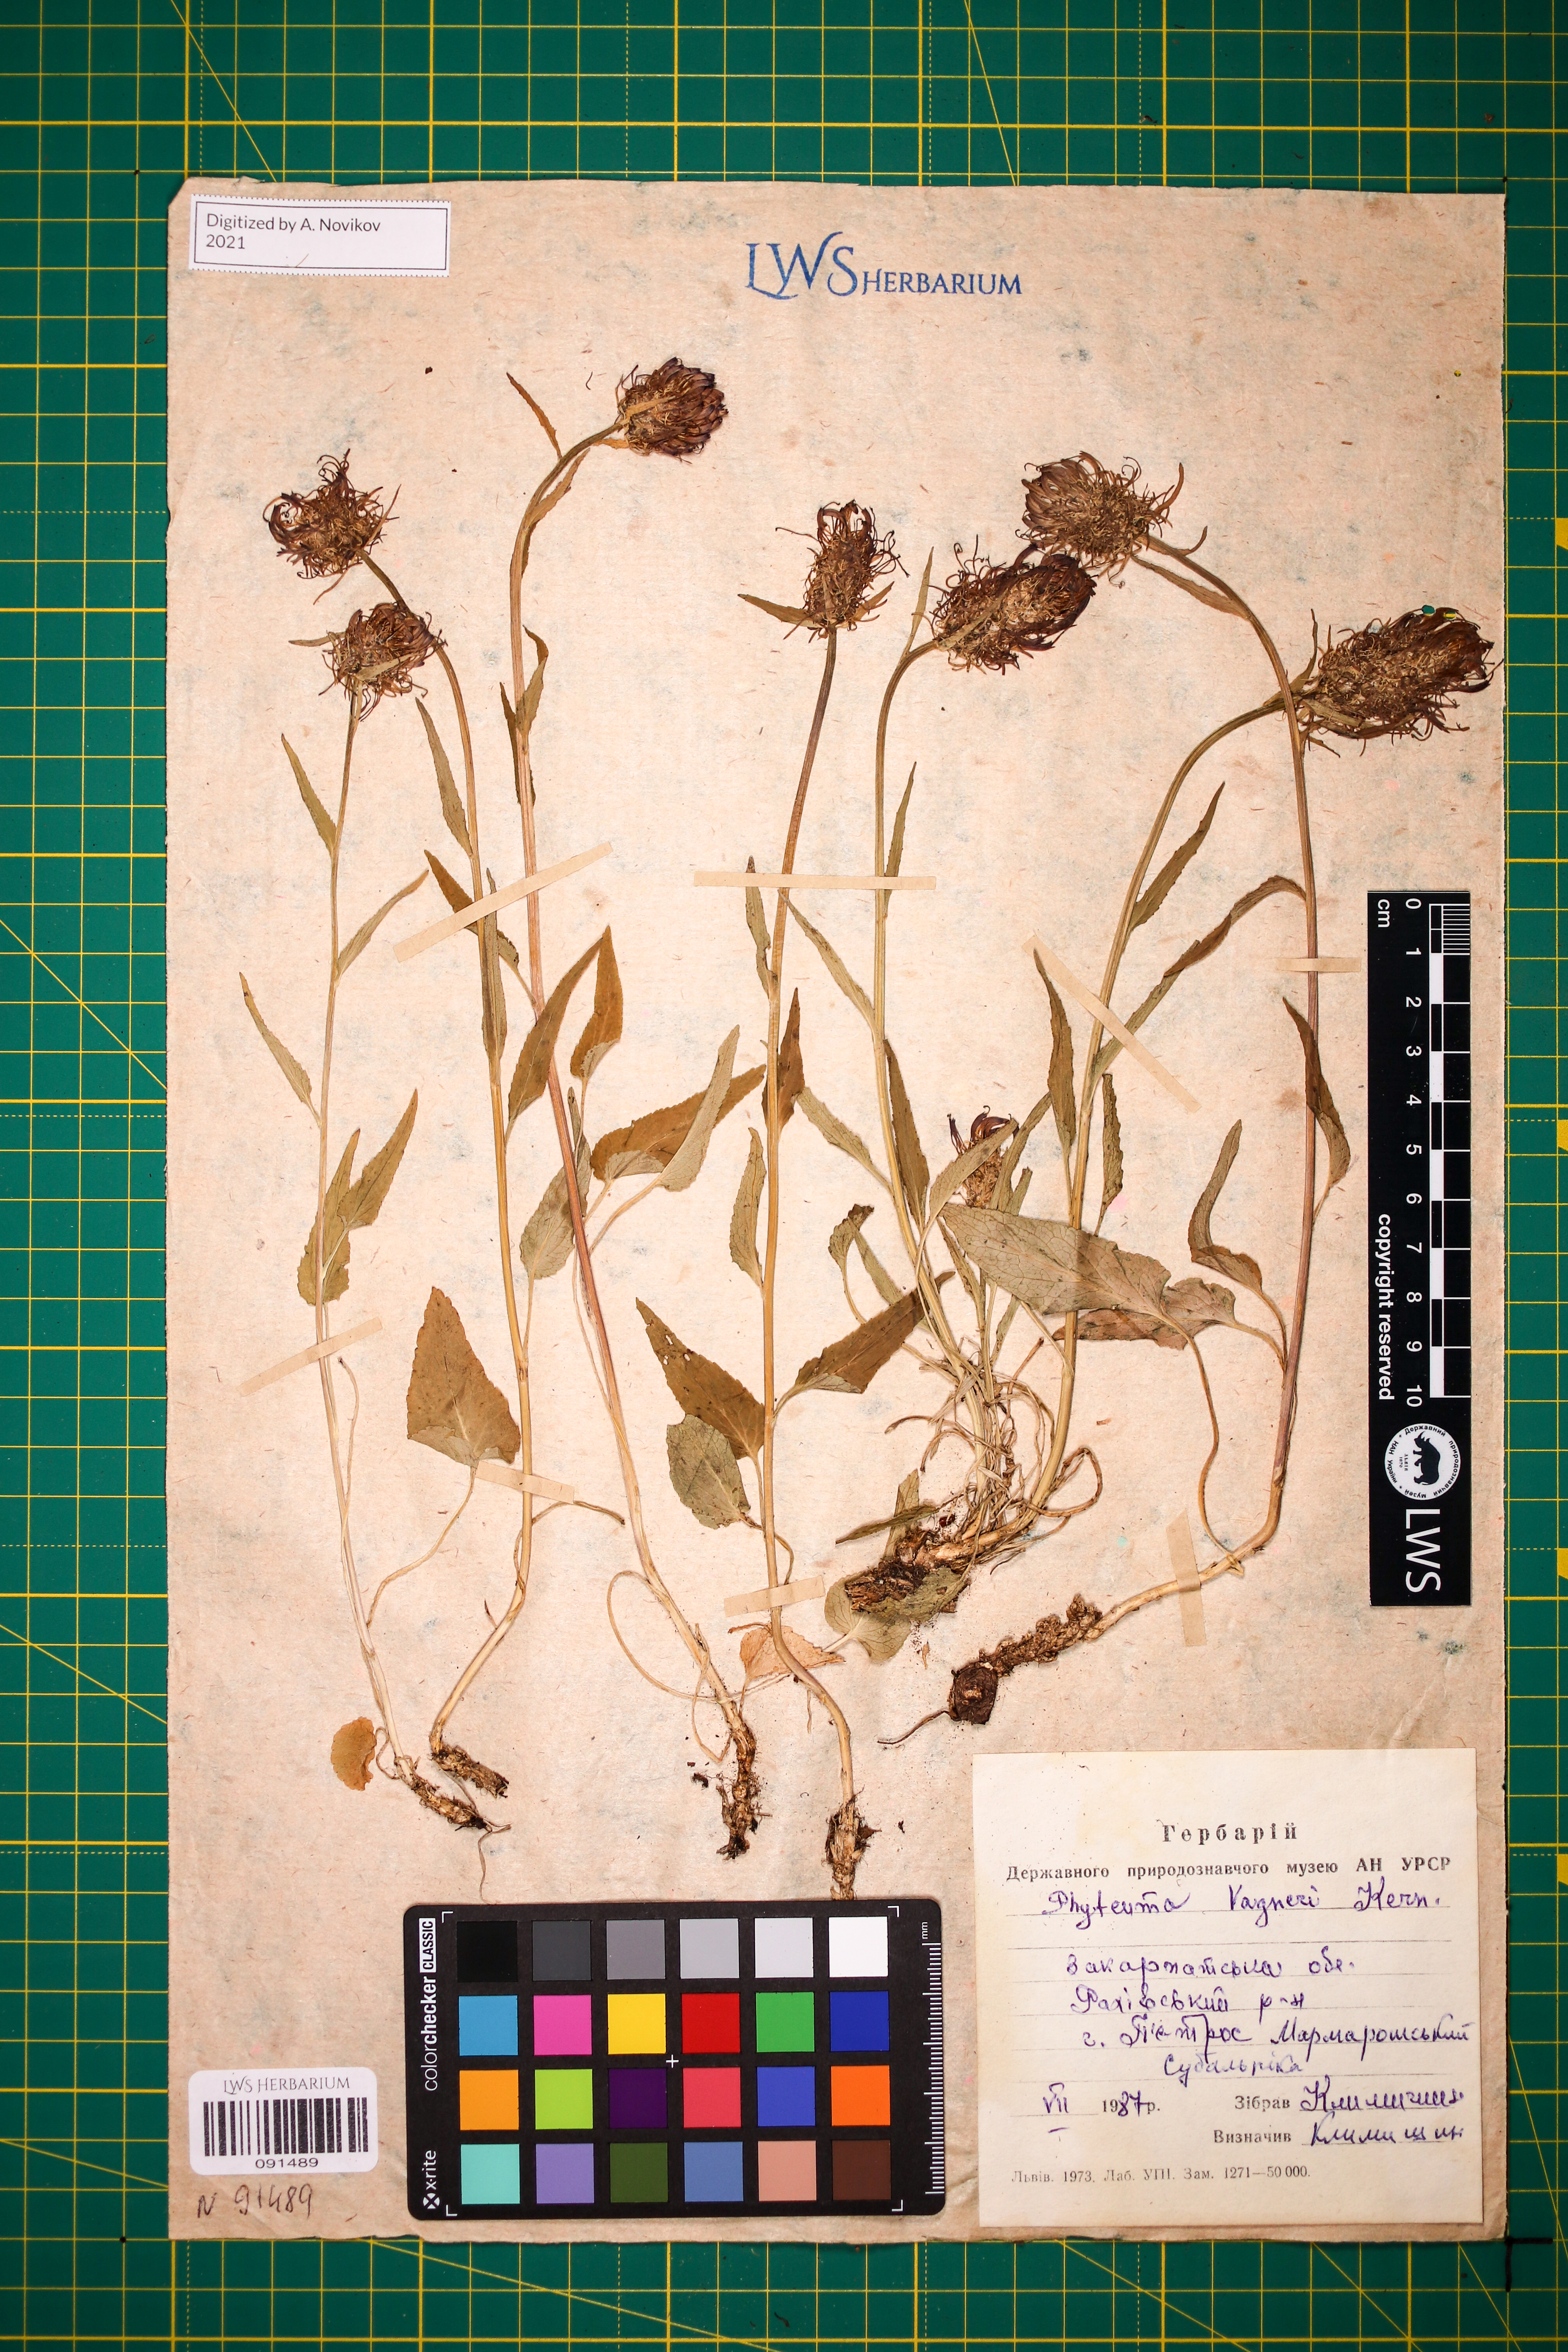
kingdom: Plantae
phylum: Tracheophyta
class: Magnoliopsida
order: Asterales
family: Campanulaceae
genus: Phyteuma
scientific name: Phyteuma vagneri
